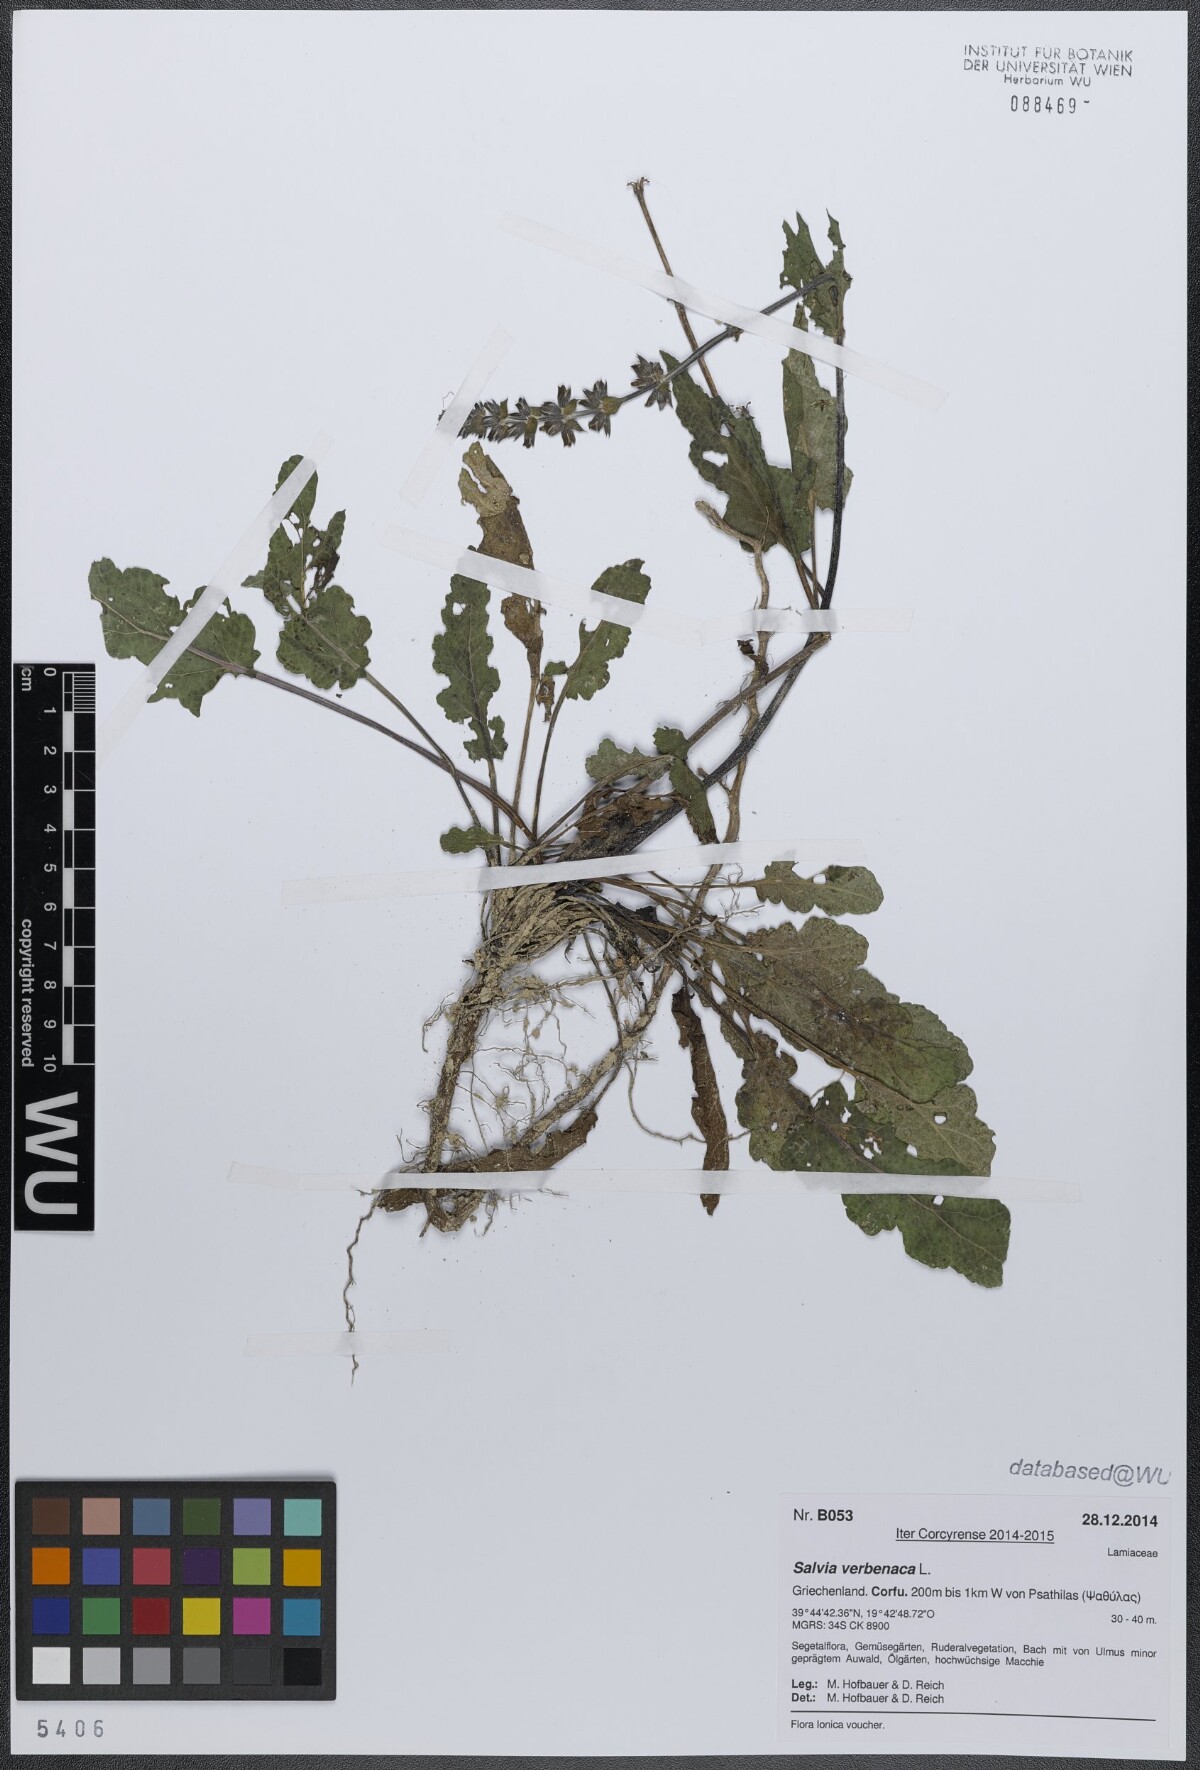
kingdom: Plantae
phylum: Tracheophyta
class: Magnoliopsida
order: Lamiales
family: Lamiaceae
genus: Salvia
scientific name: Salvia verbenaca
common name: Wild clary
